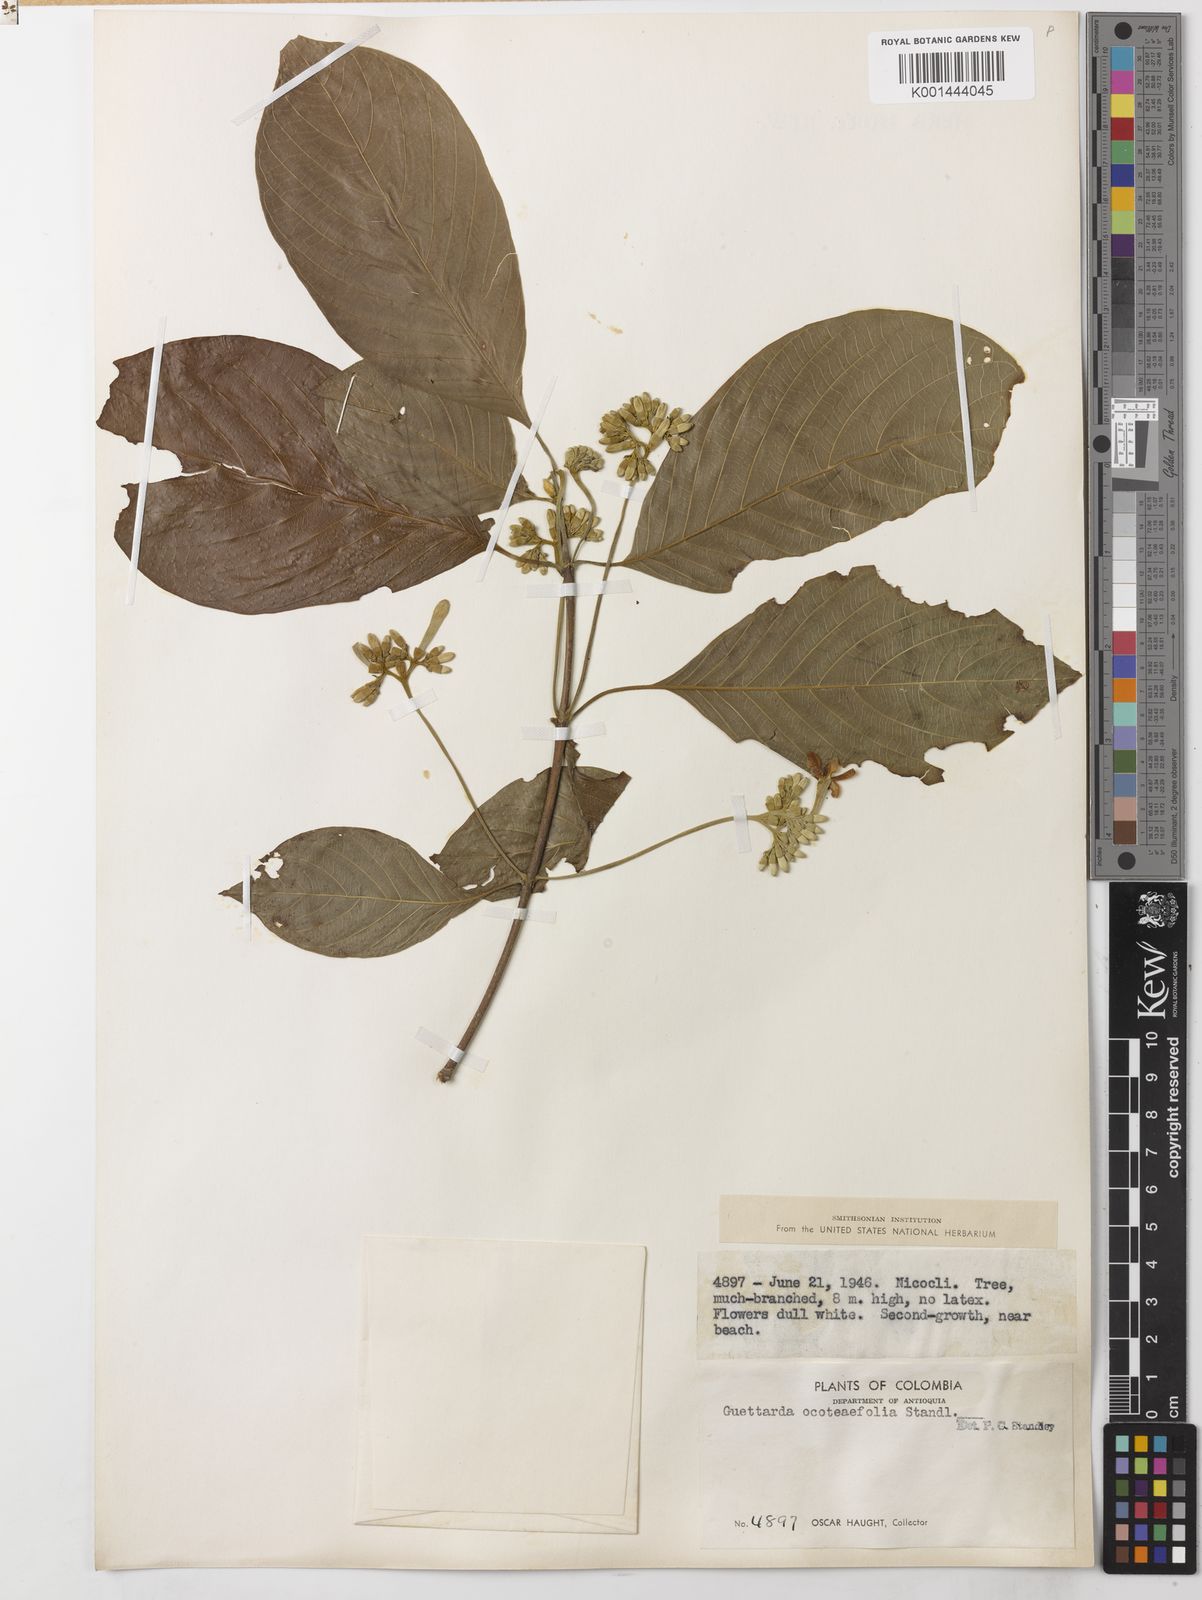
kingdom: Plantae
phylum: Tracheophyta
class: Magnoliopsida
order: Gentianales
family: Rubiaceae
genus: Guettarda
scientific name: Guettarda ocoteifolia
